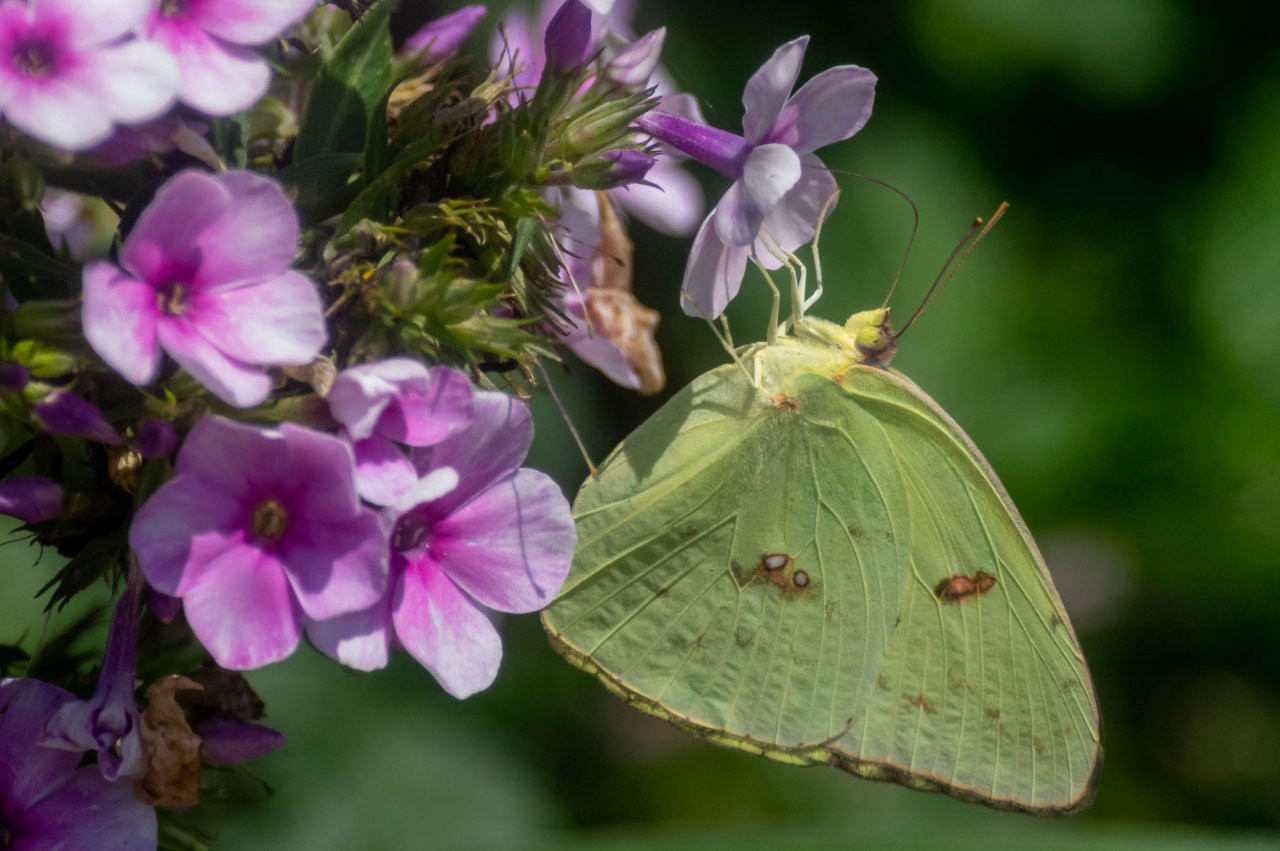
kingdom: Animalia
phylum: Arthropoda
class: Insecta
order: Lepidoptera
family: Pieridae
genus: Phoebis
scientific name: Phoebis sennae
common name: Cloudless Sulphur
